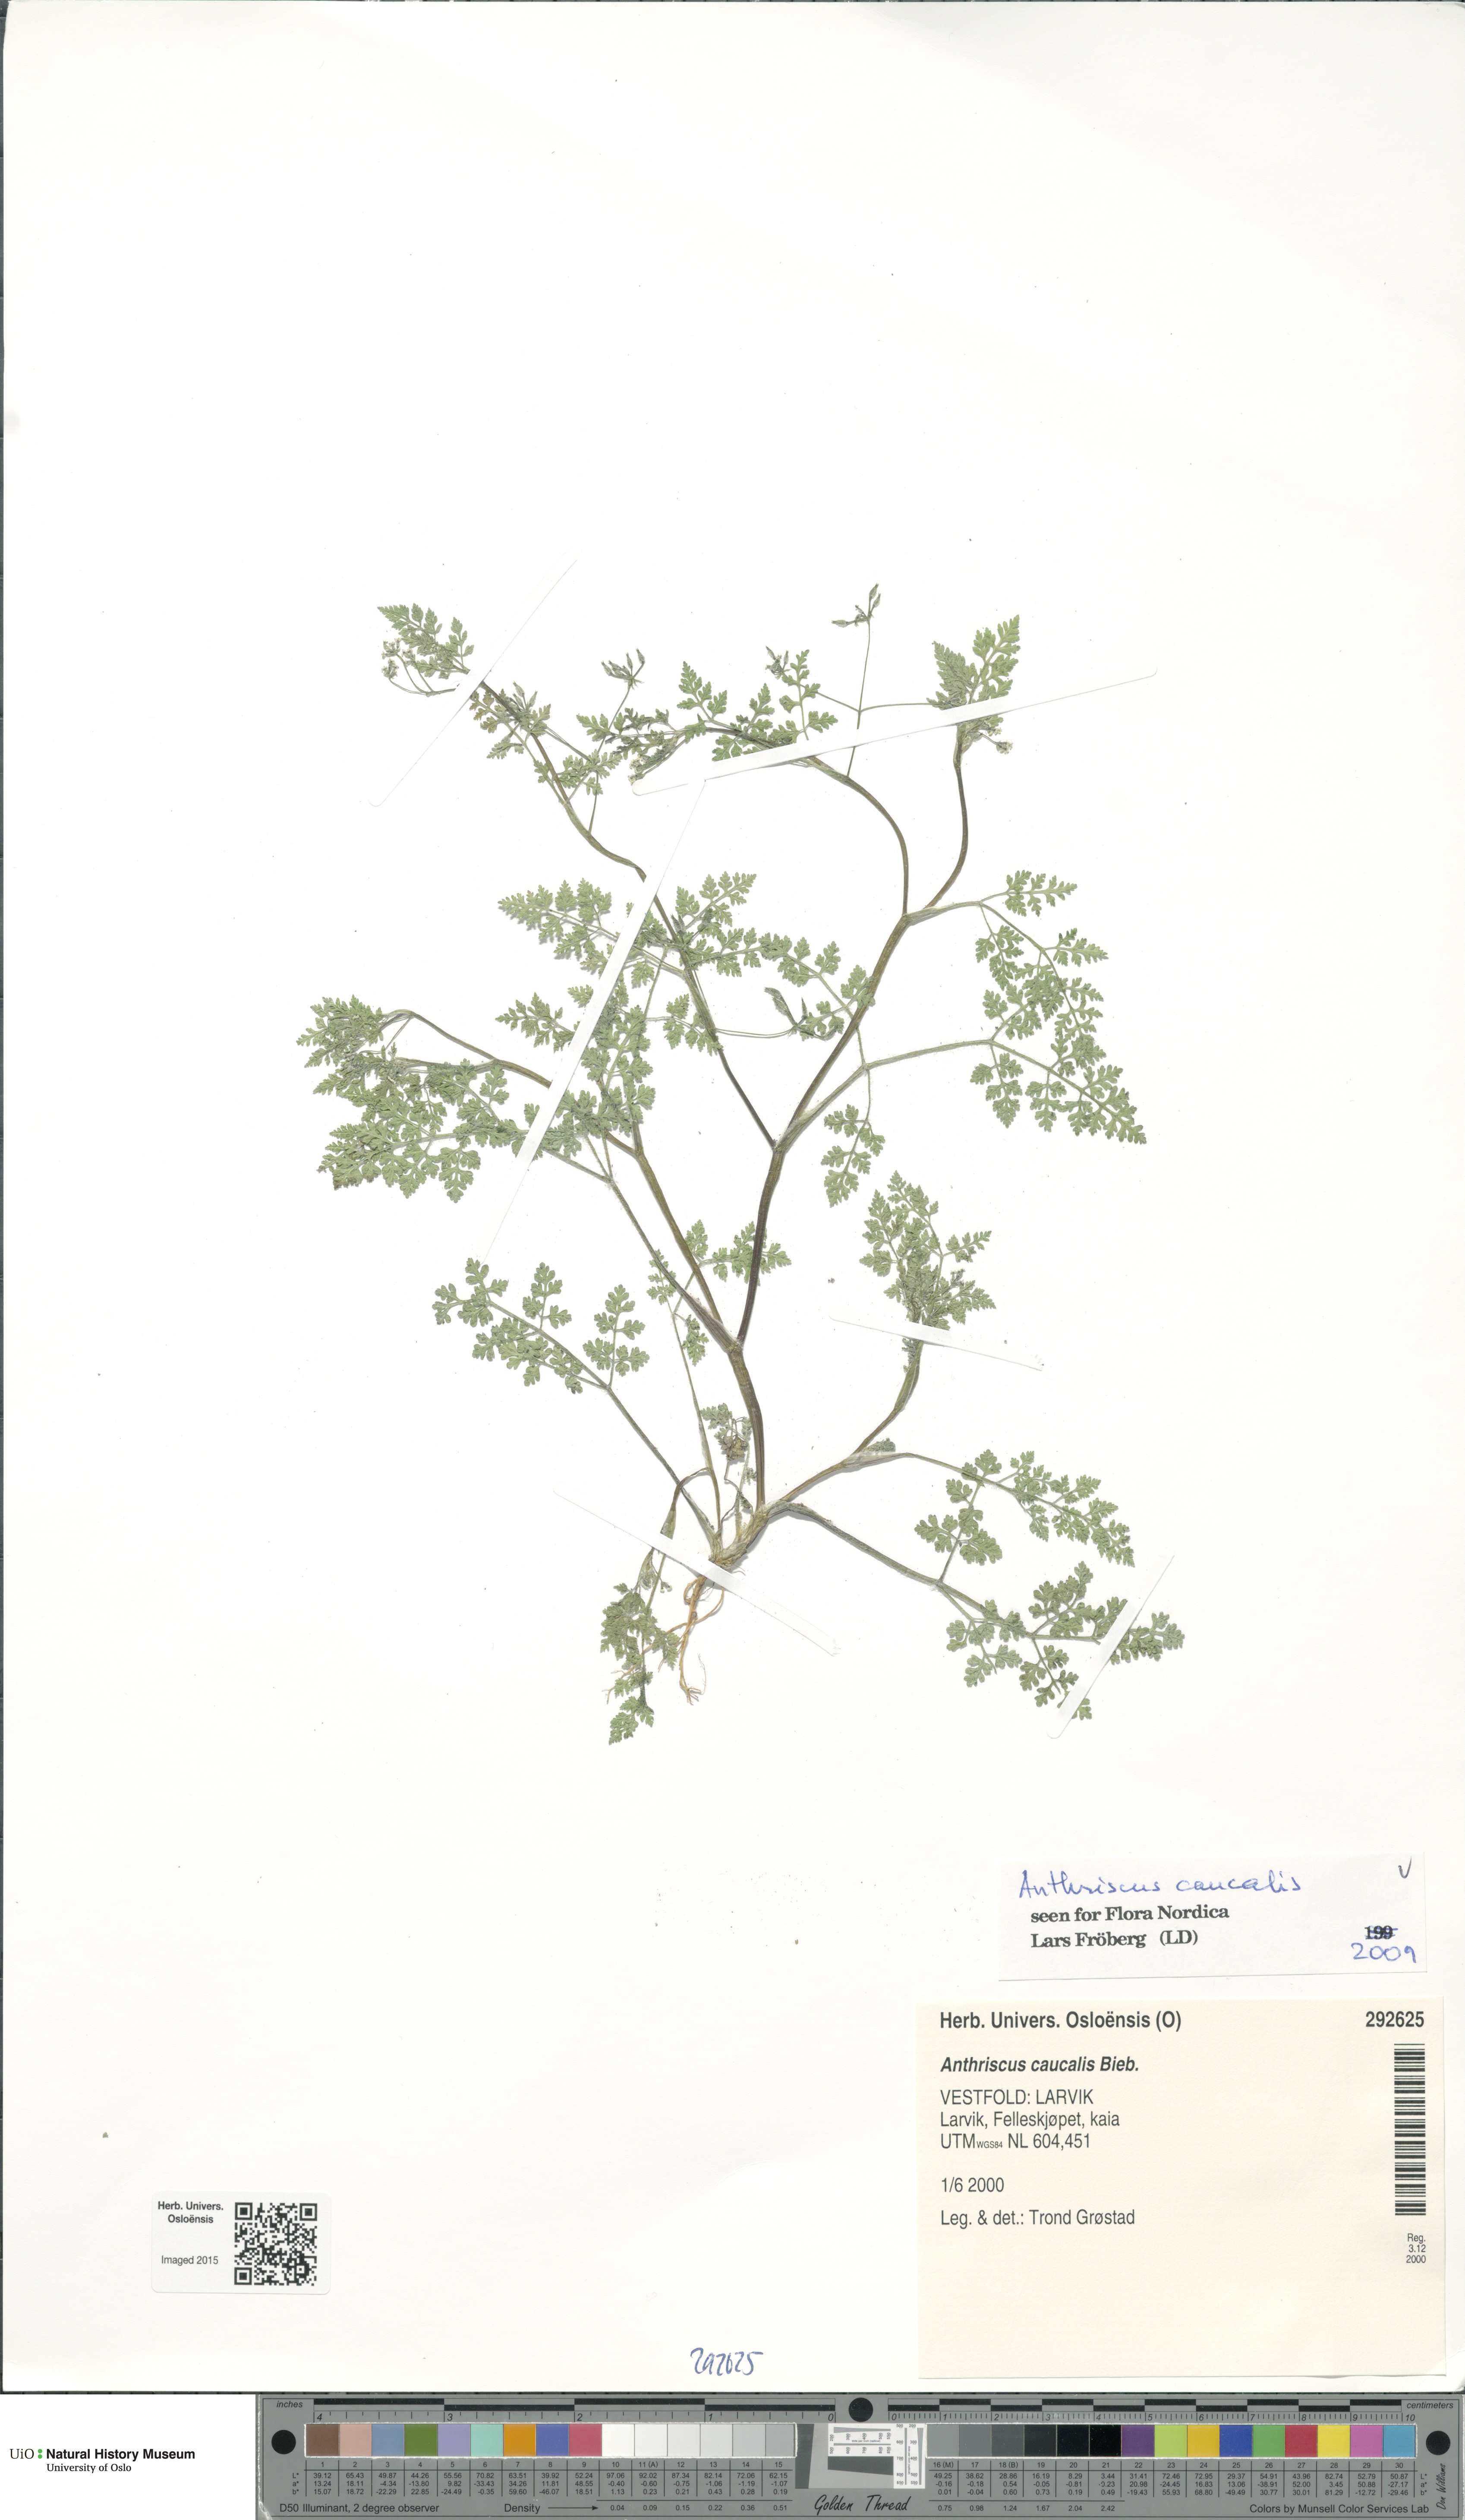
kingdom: Plantae
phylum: Tracheophyta
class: Magnoliopsida
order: Apiales
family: Apiaceae
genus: Anthriscus
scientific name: Anthriscus caucalis
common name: Bur chervil
